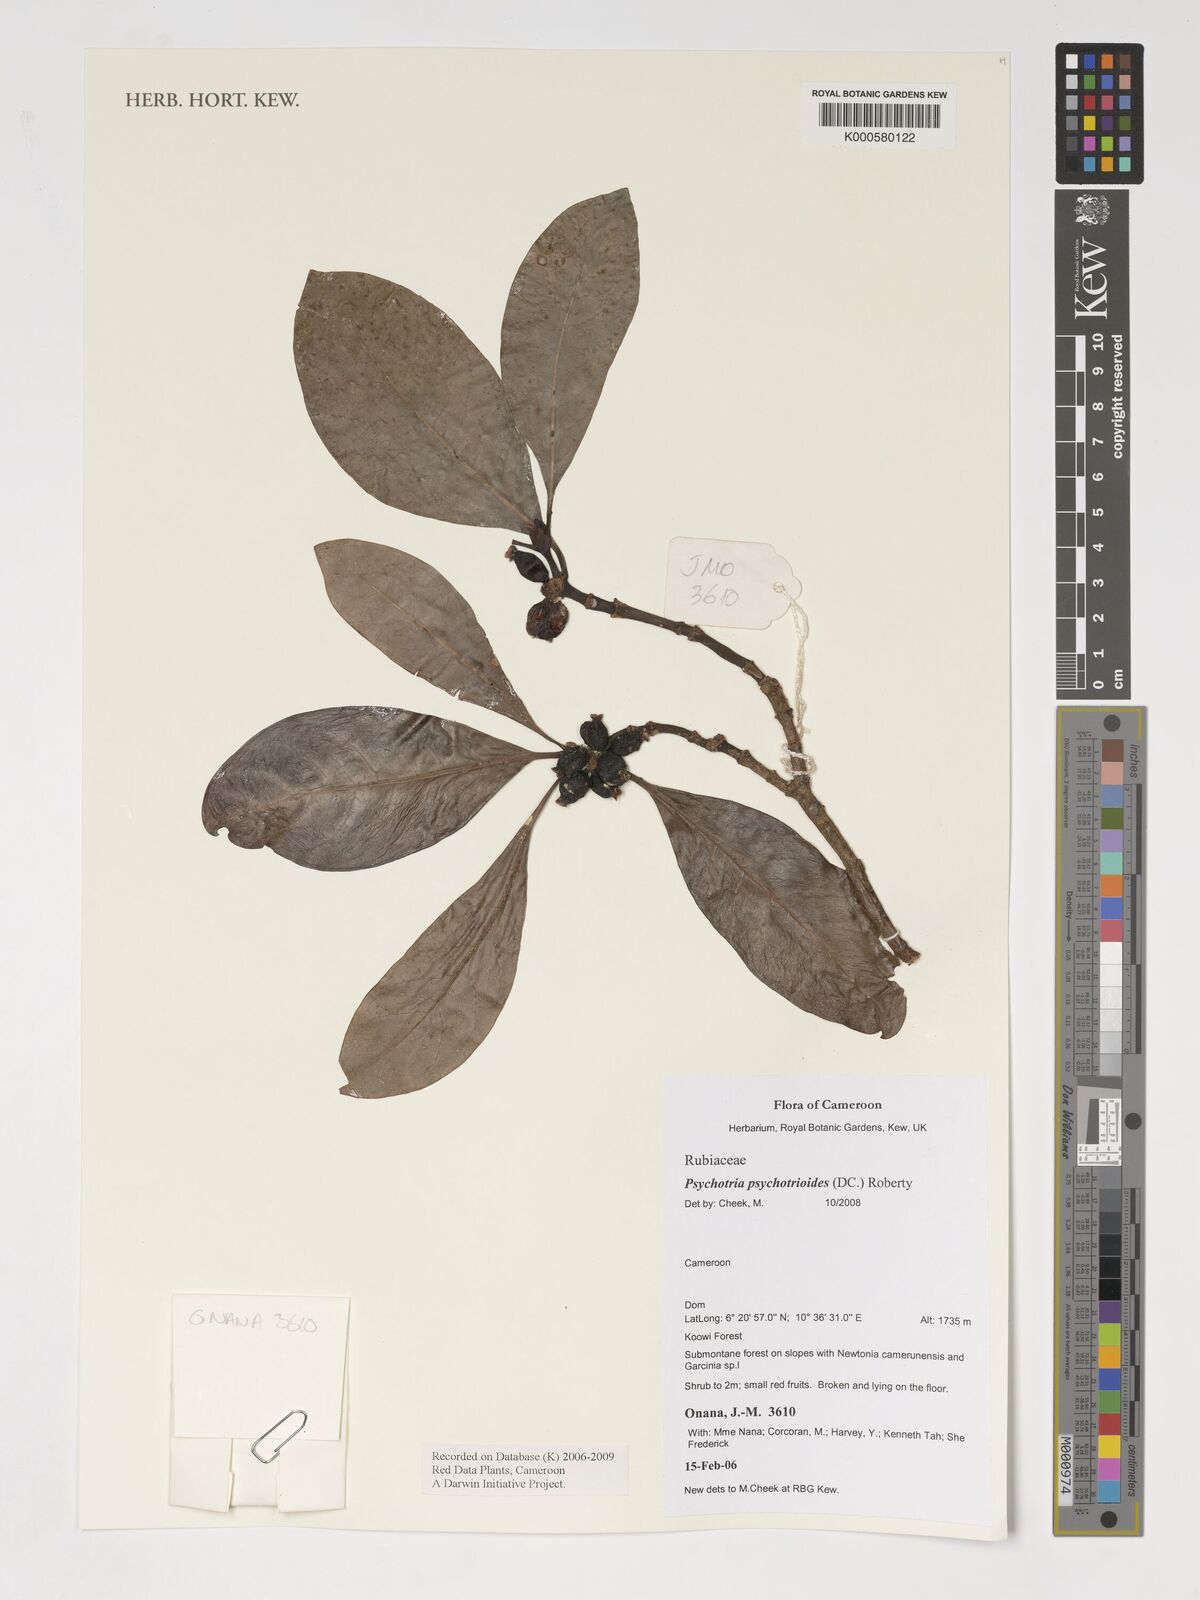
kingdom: Plantae
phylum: Tracheophyta
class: Magnoliopsida
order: Gentianales
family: Rubiaceae
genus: Psychotria
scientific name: Psychotria psychotrioides
